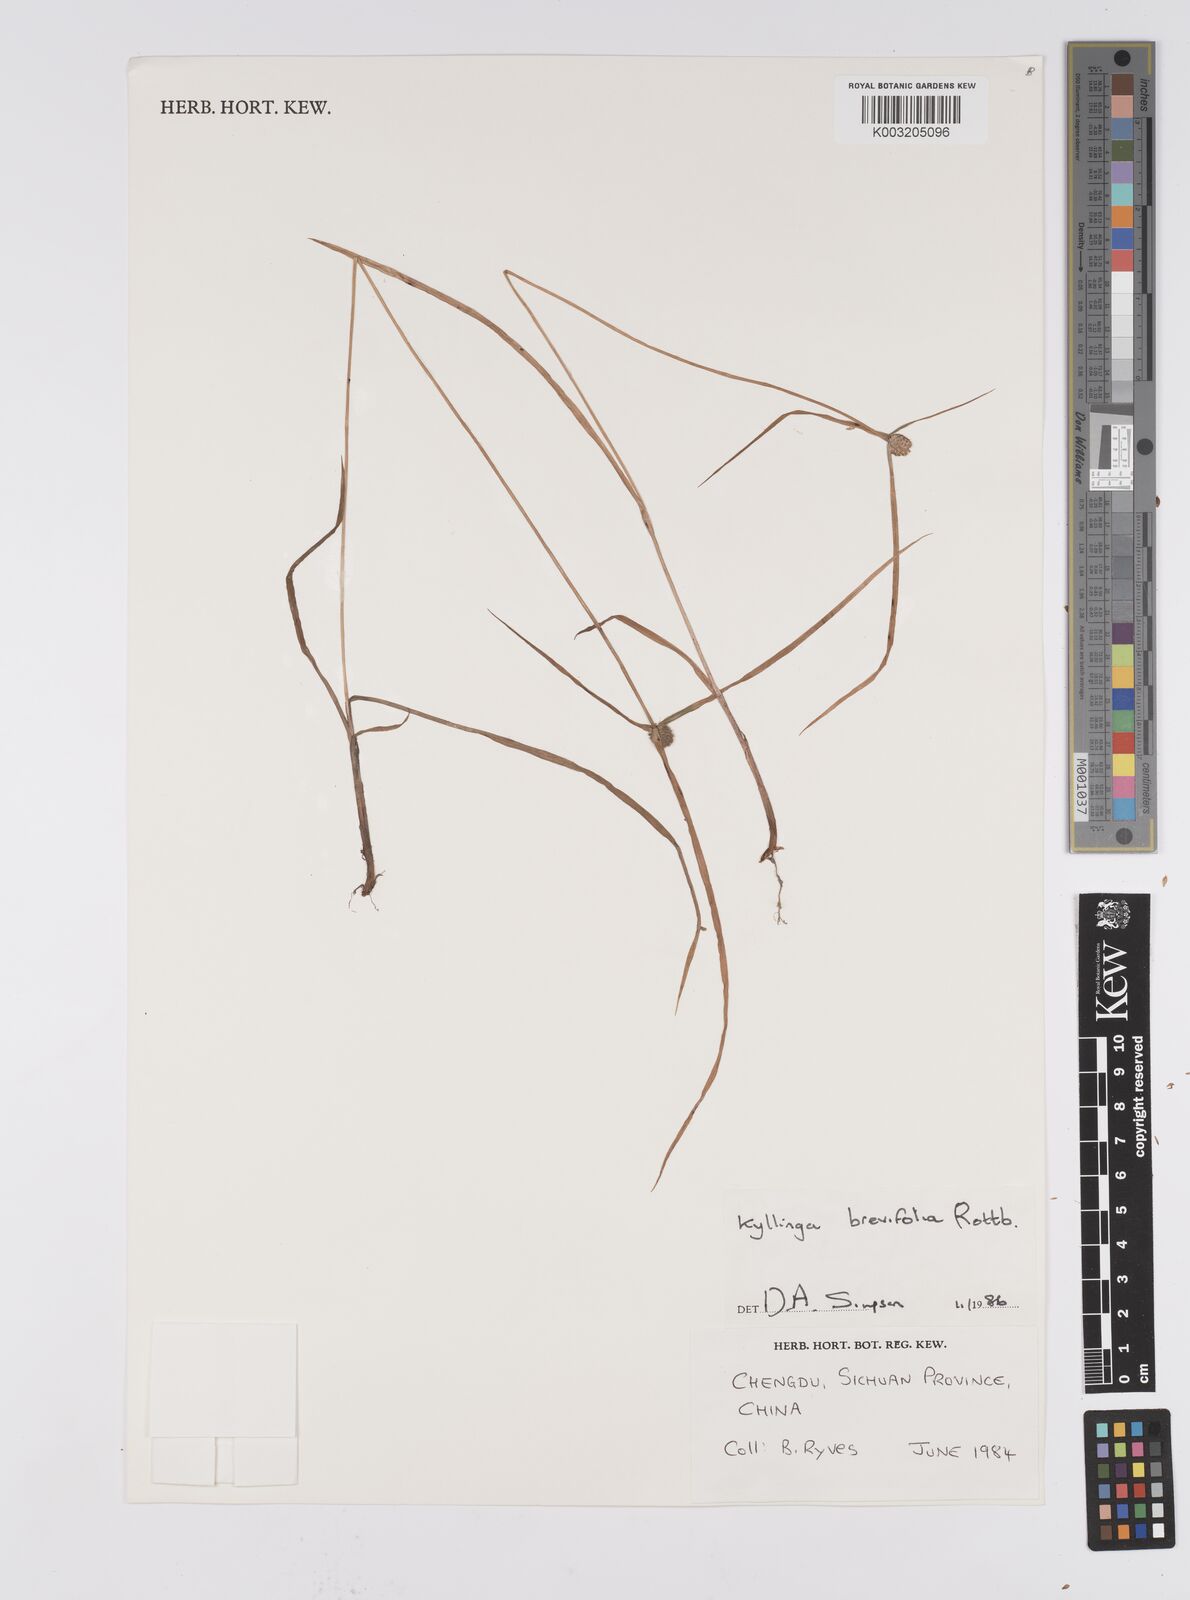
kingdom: Plantae
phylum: Tracheophyta
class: Liliopsida
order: Poales
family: Cyperaceae
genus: Cyperus
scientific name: Cyperus brevifolius
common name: Globe kyllinga
